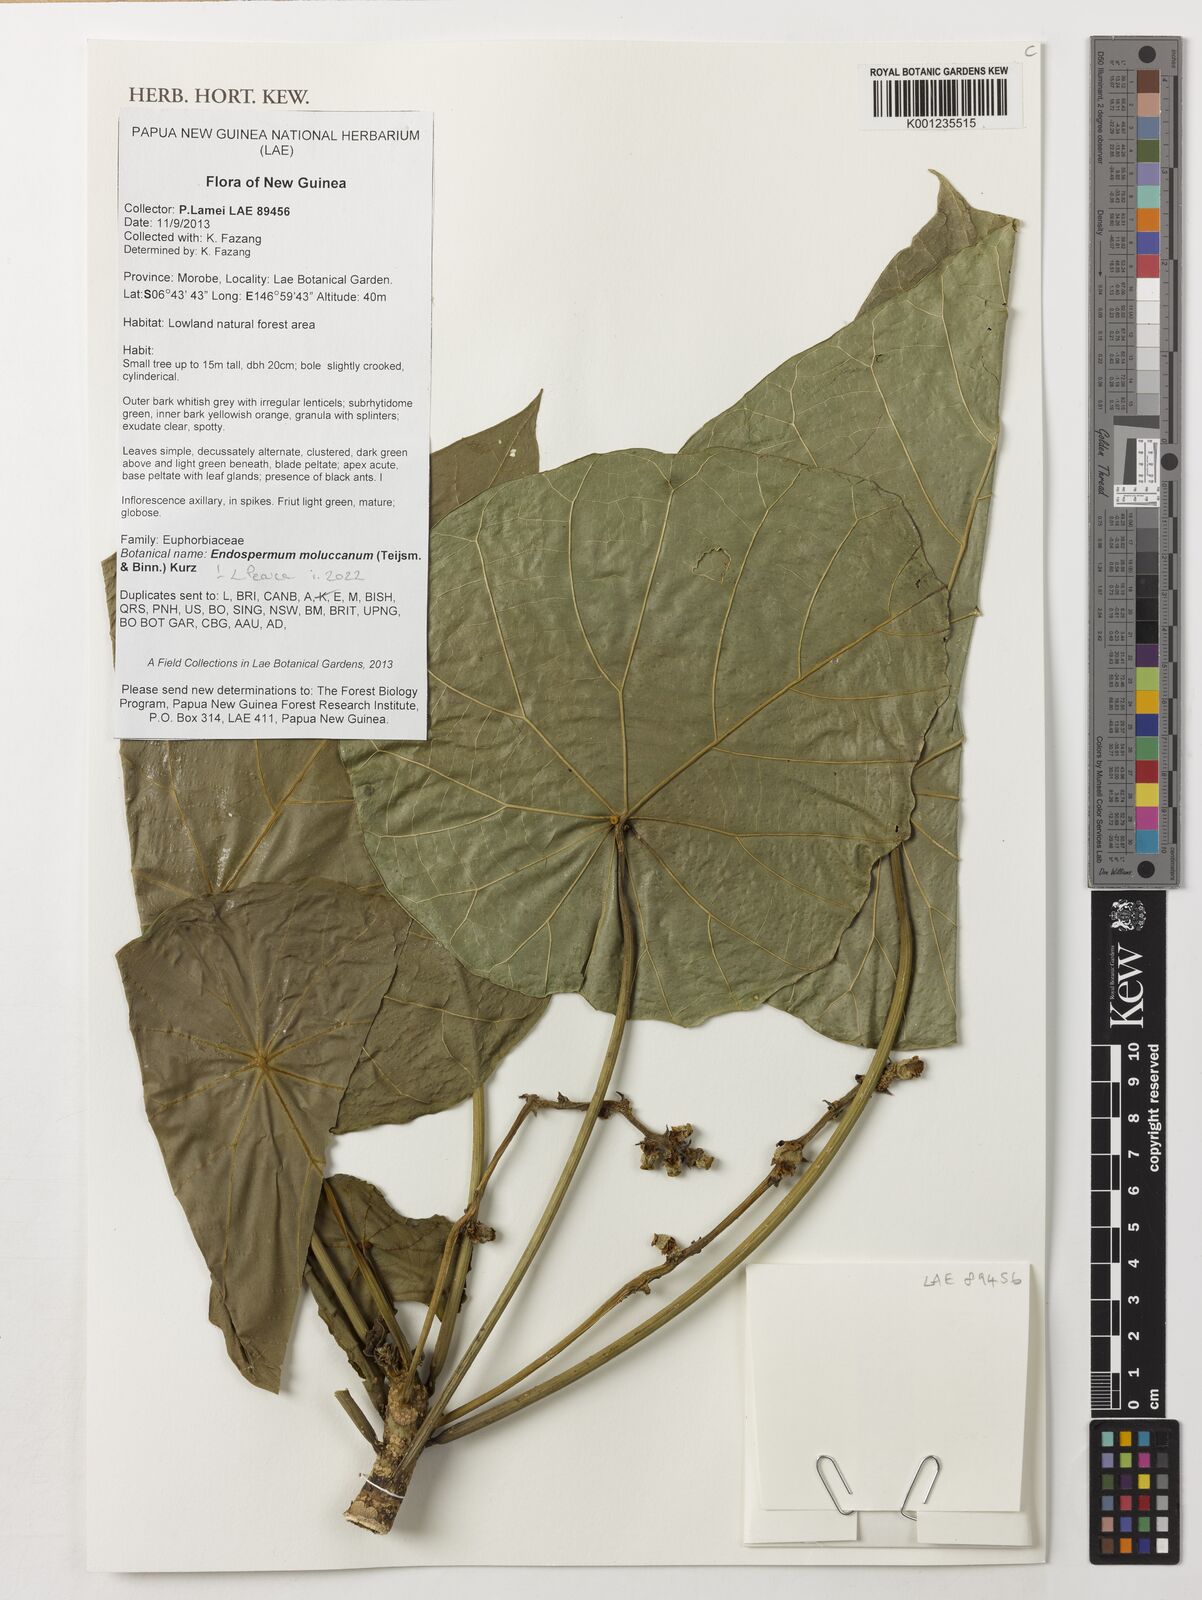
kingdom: Plantae
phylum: Tracheophyta
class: Magnoliopsida
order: Malpighiales
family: Euphorbiaceae
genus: Endospermum
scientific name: Endospermum moluccanum
